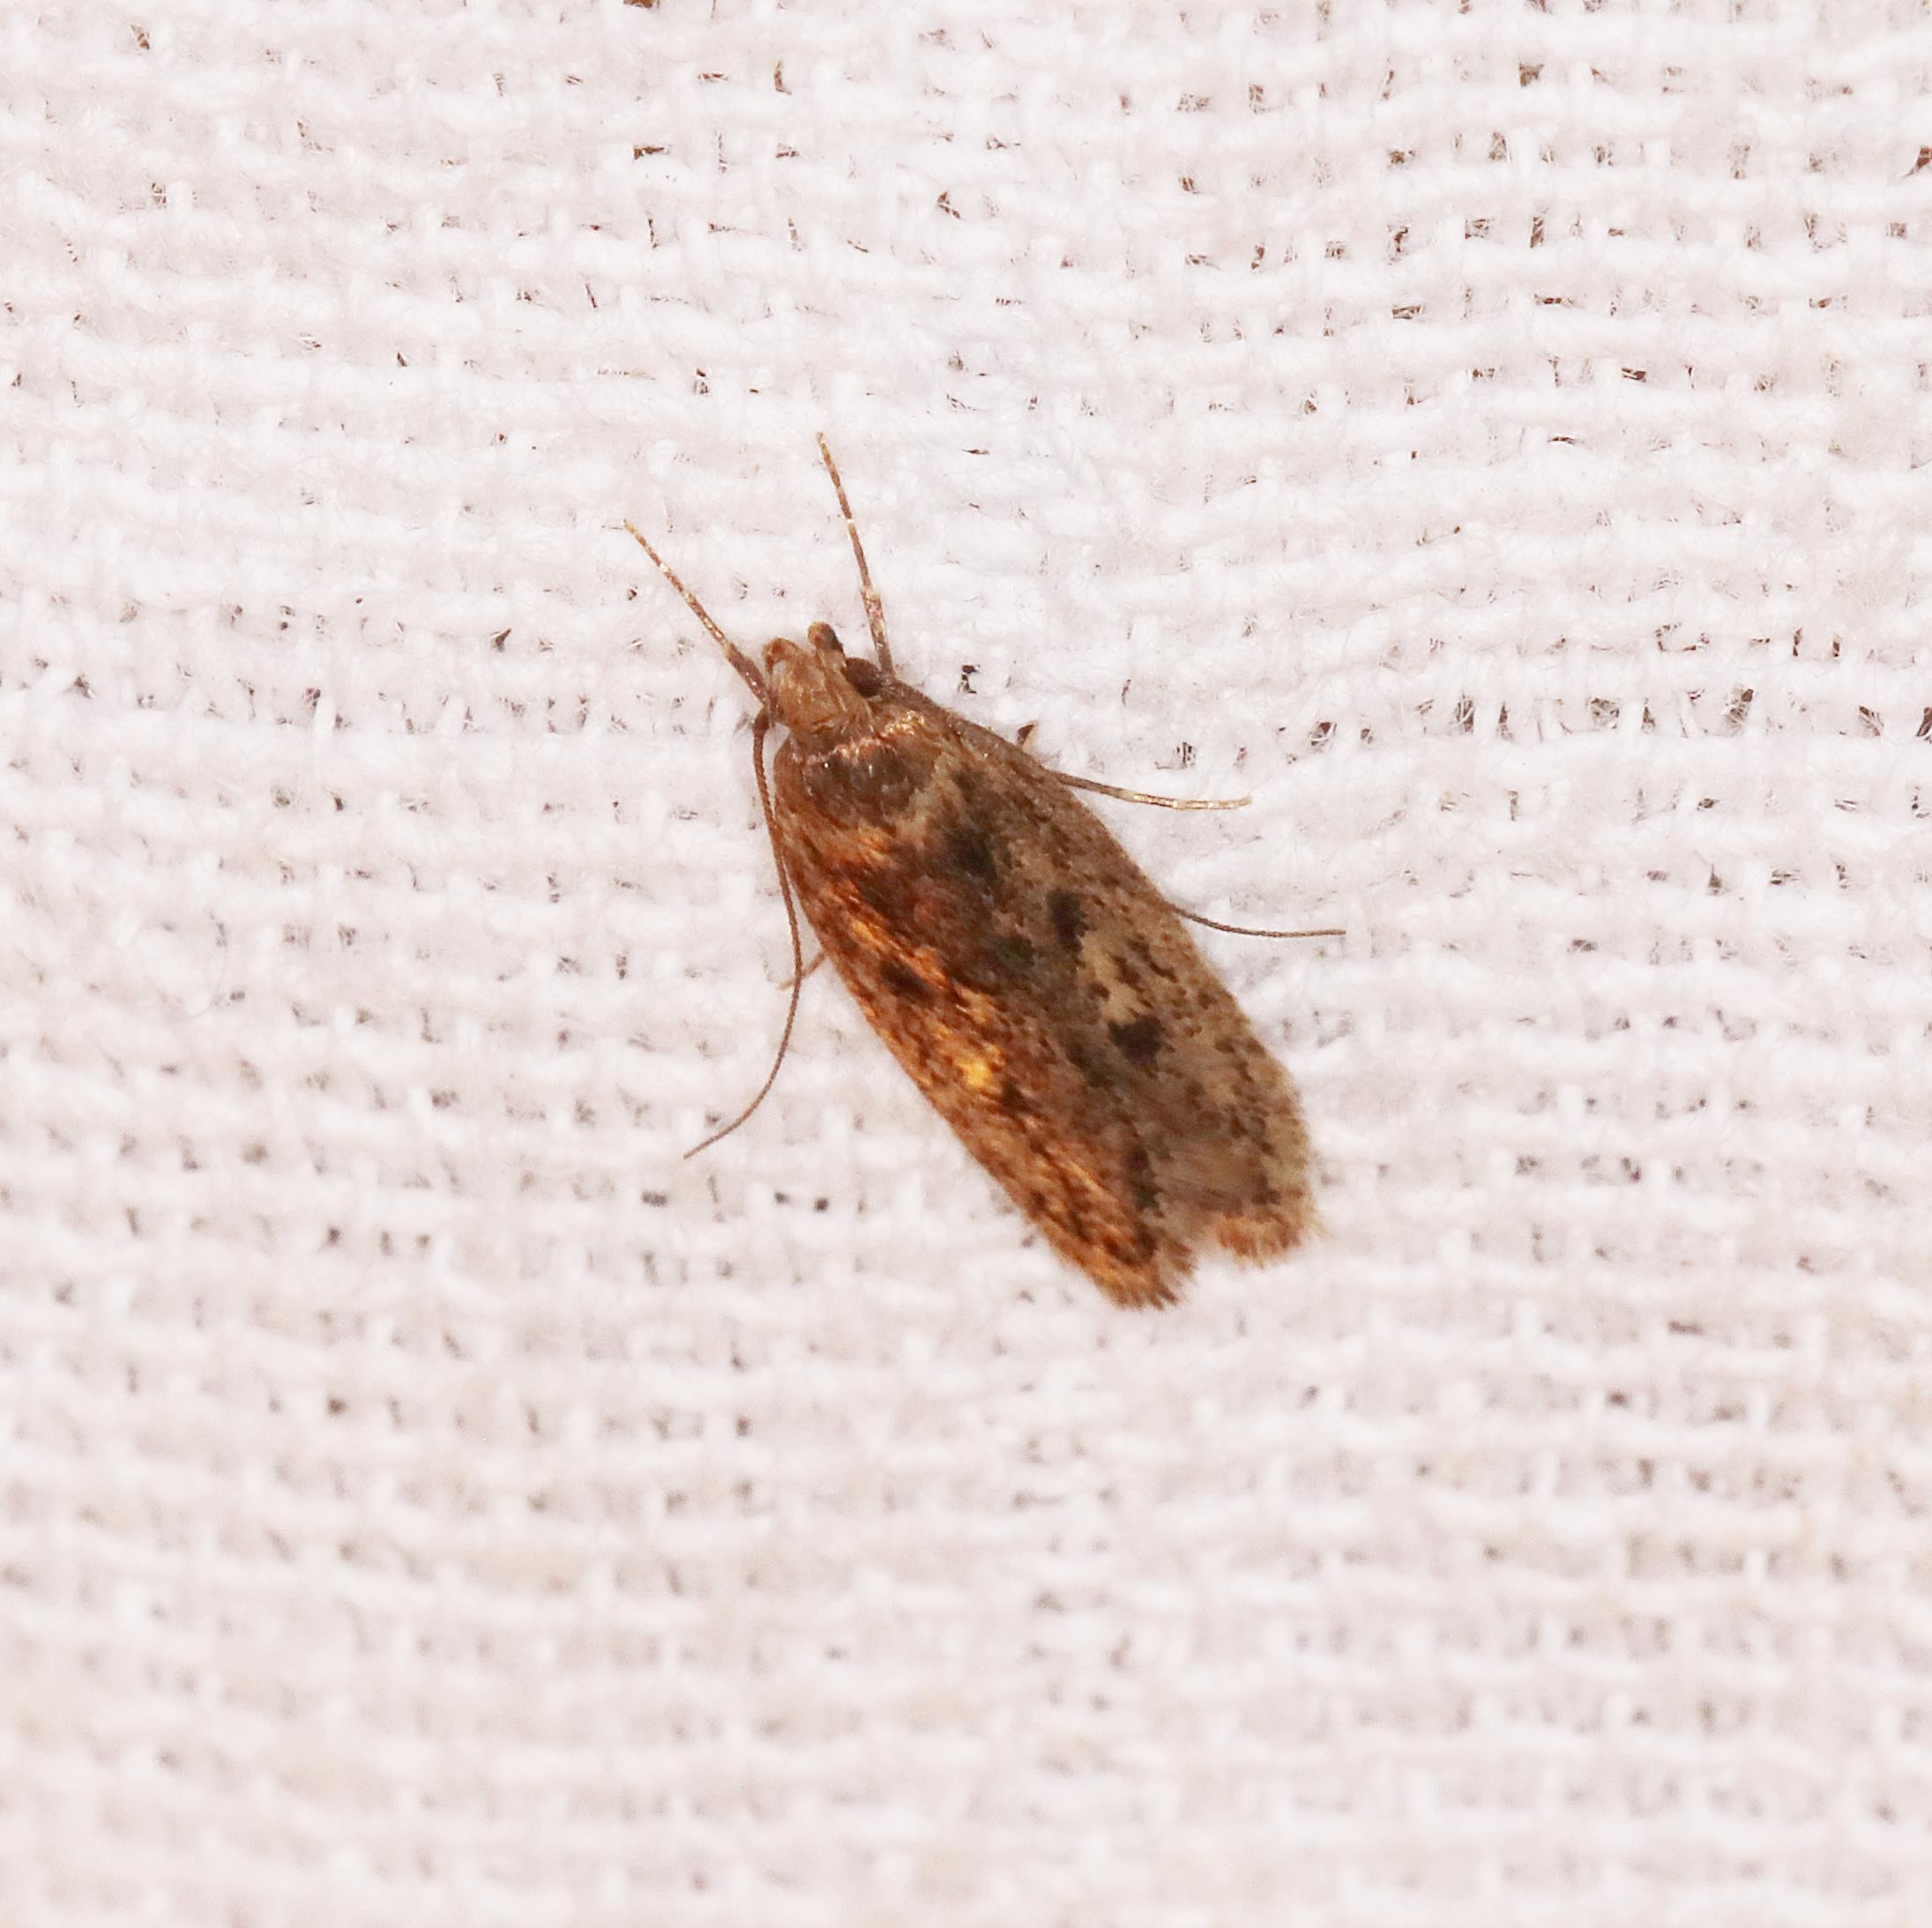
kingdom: Animalia
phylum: Arthropoda
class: Insecta
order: Lepidoptera
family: Oecophoridae
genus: Hofmannophila
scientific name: Hofmannophila pseudospretella
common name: Frømøl
